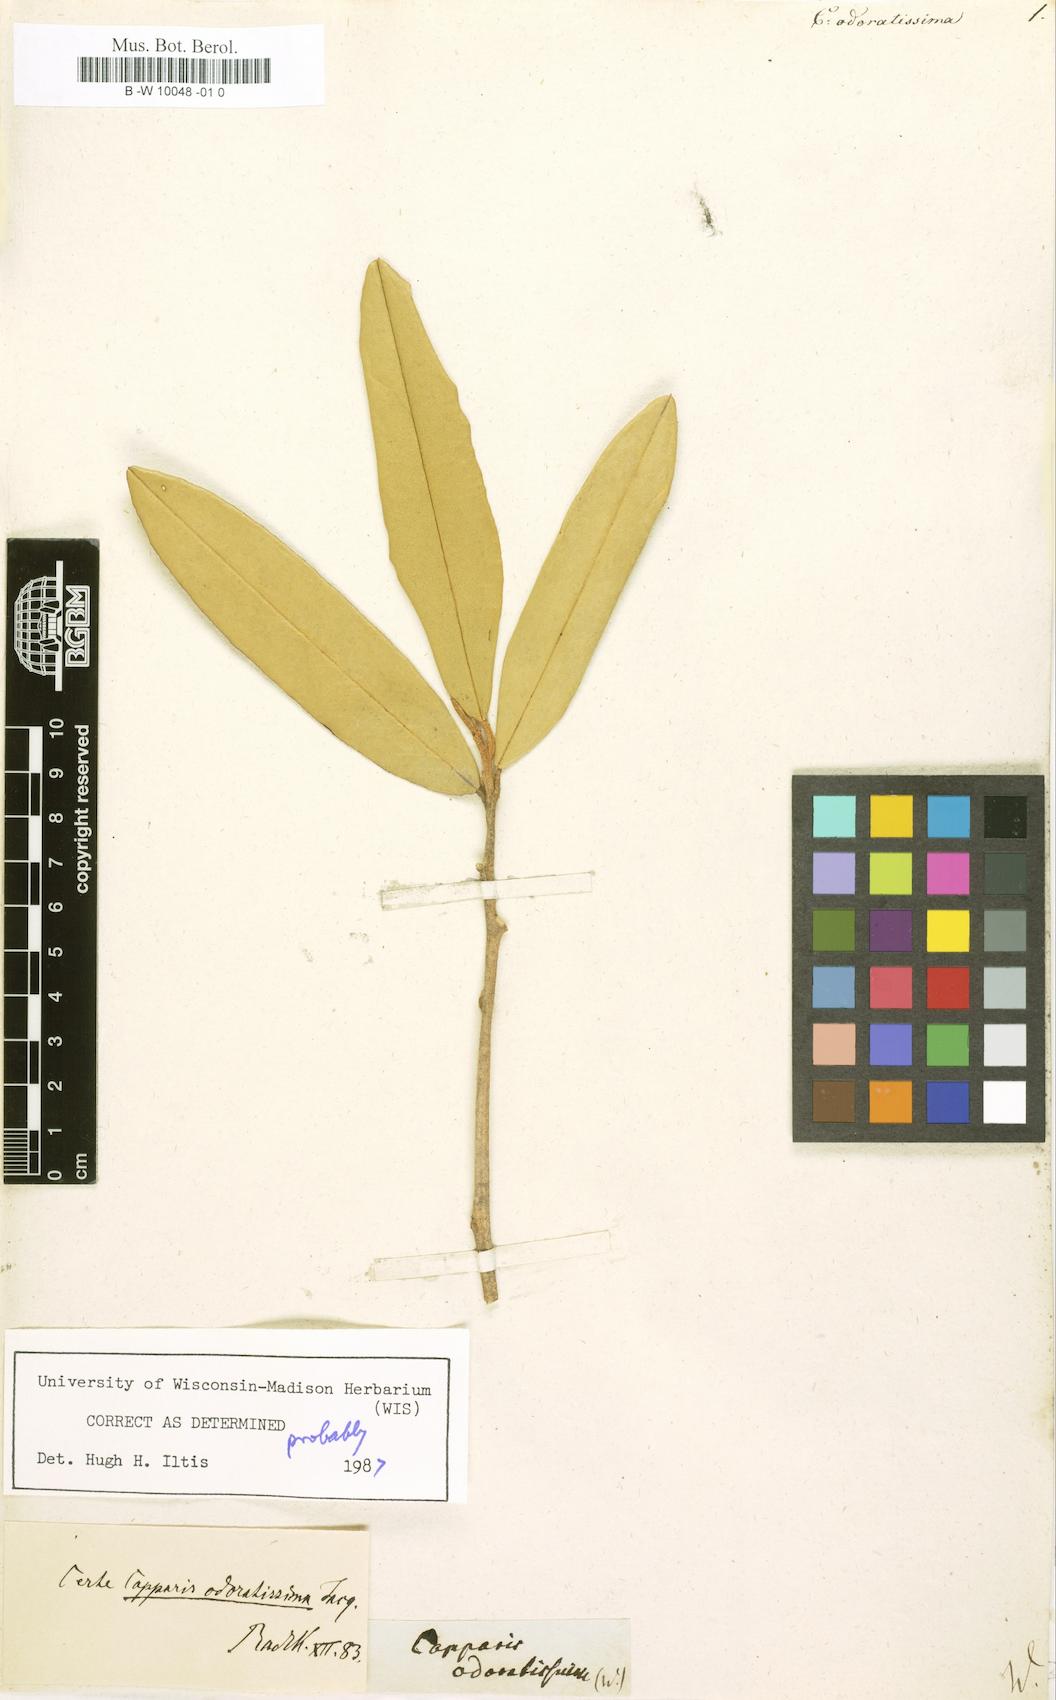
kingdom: Plantae
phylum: Tracheophyta
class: Magnoliopsida
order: Brassicales
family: Capparaceae
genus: Quadrella
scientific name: Quadrella odoratissima
